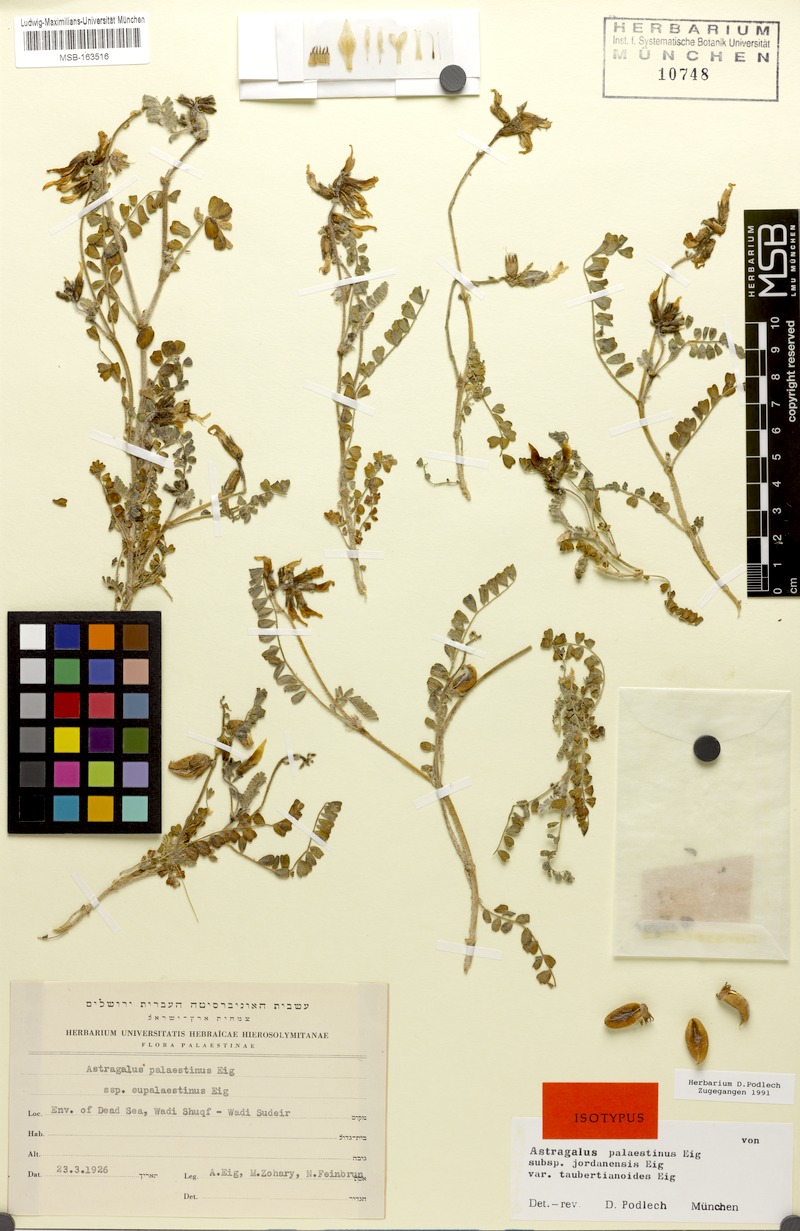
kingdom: Plantae
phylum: Tracheophyta
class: Magnoliopsida
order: Fabales
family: Fabaceae
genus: Astragalus
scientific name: Astragalus palaestinus
